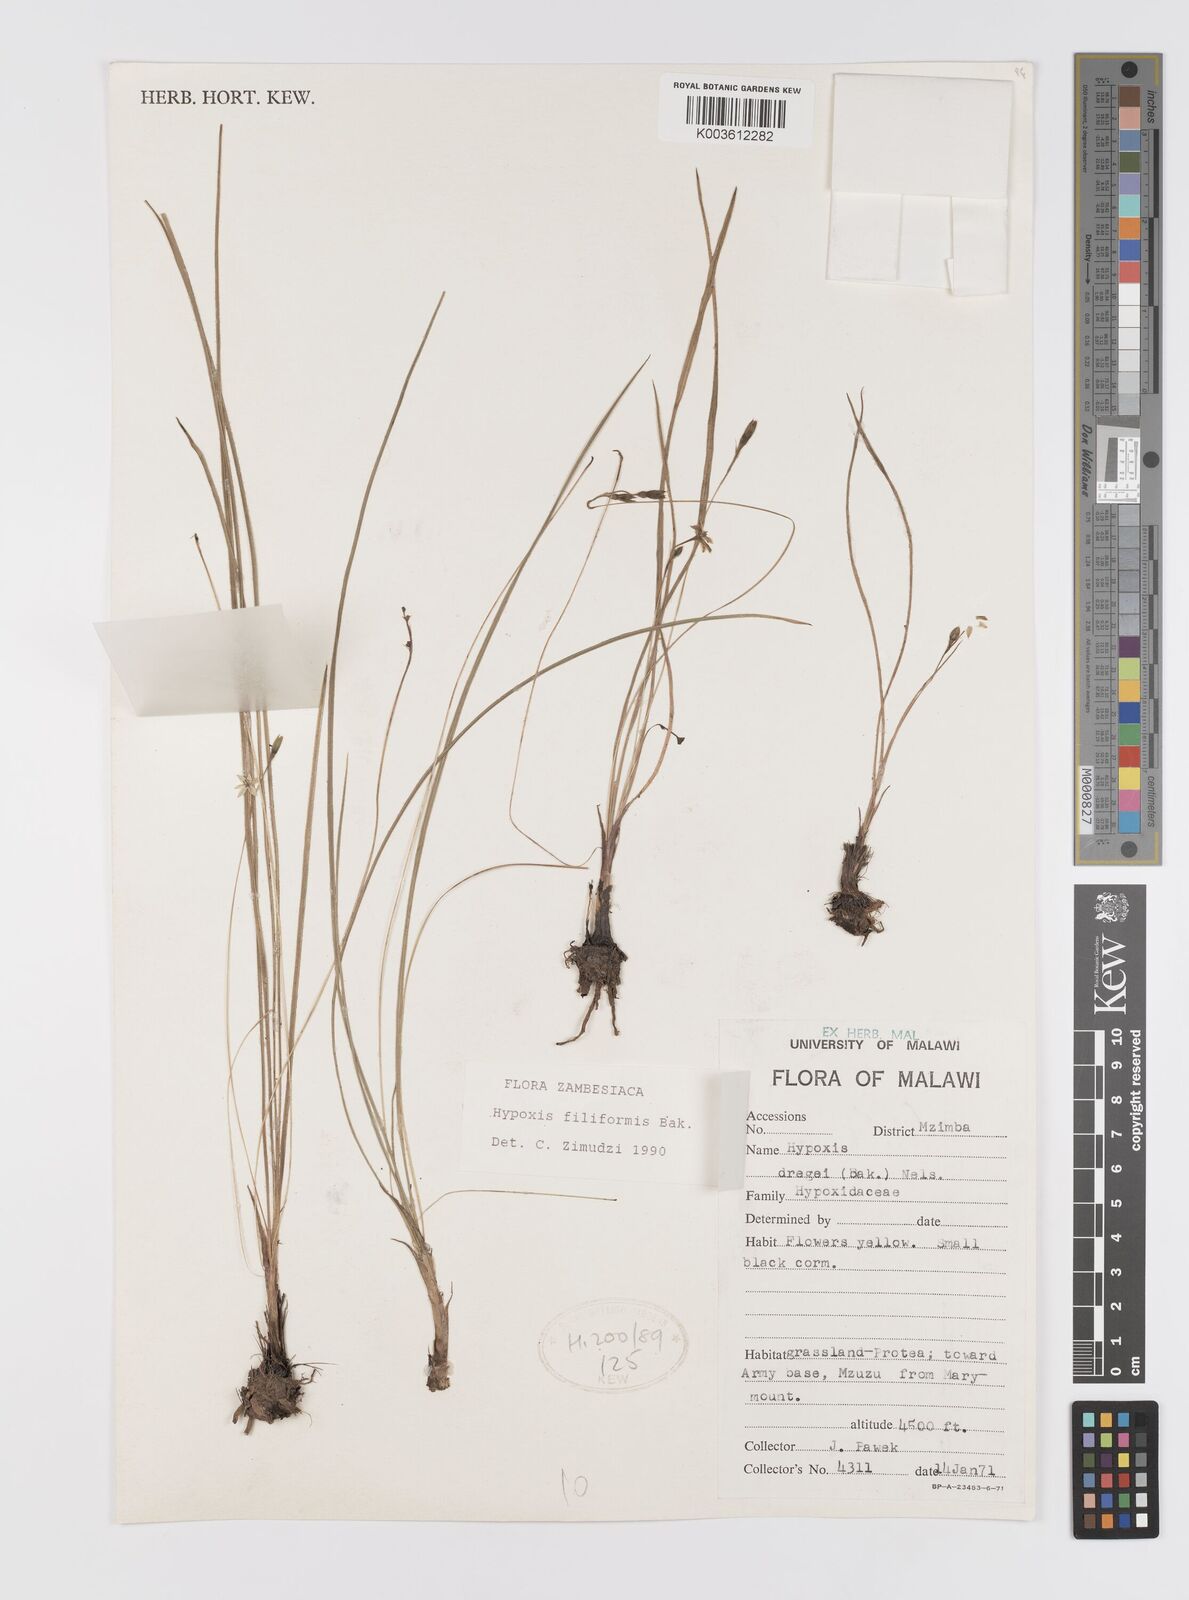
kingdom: Plantae
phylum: Tracheophyta
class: Liliopsida
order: Asparagales
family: Hypoxidaceae
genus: Hypoxis
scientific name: Hypoxis filiformis
